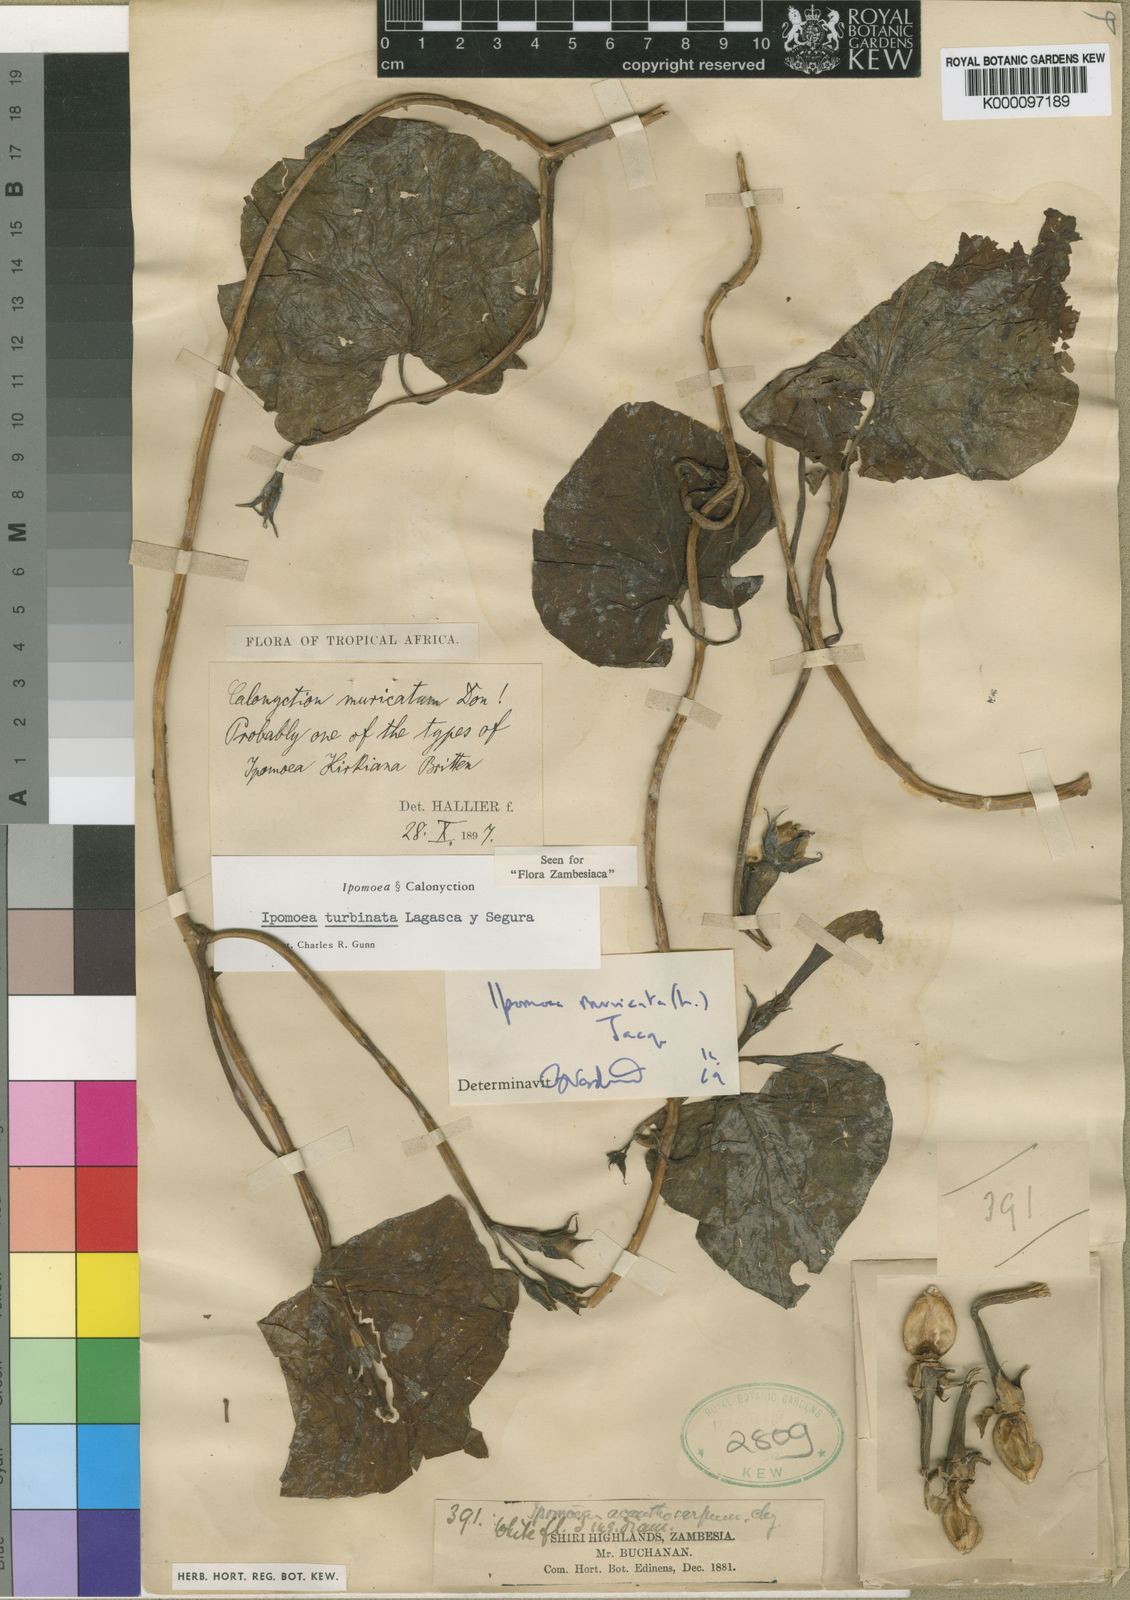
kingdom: Plantae
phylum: Tracheophyta
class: Magnoliopsida
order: Solanales
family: Convolvulaceae
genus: Ipomoea
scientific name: Ipomoea muricata
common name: Lilac-bell
